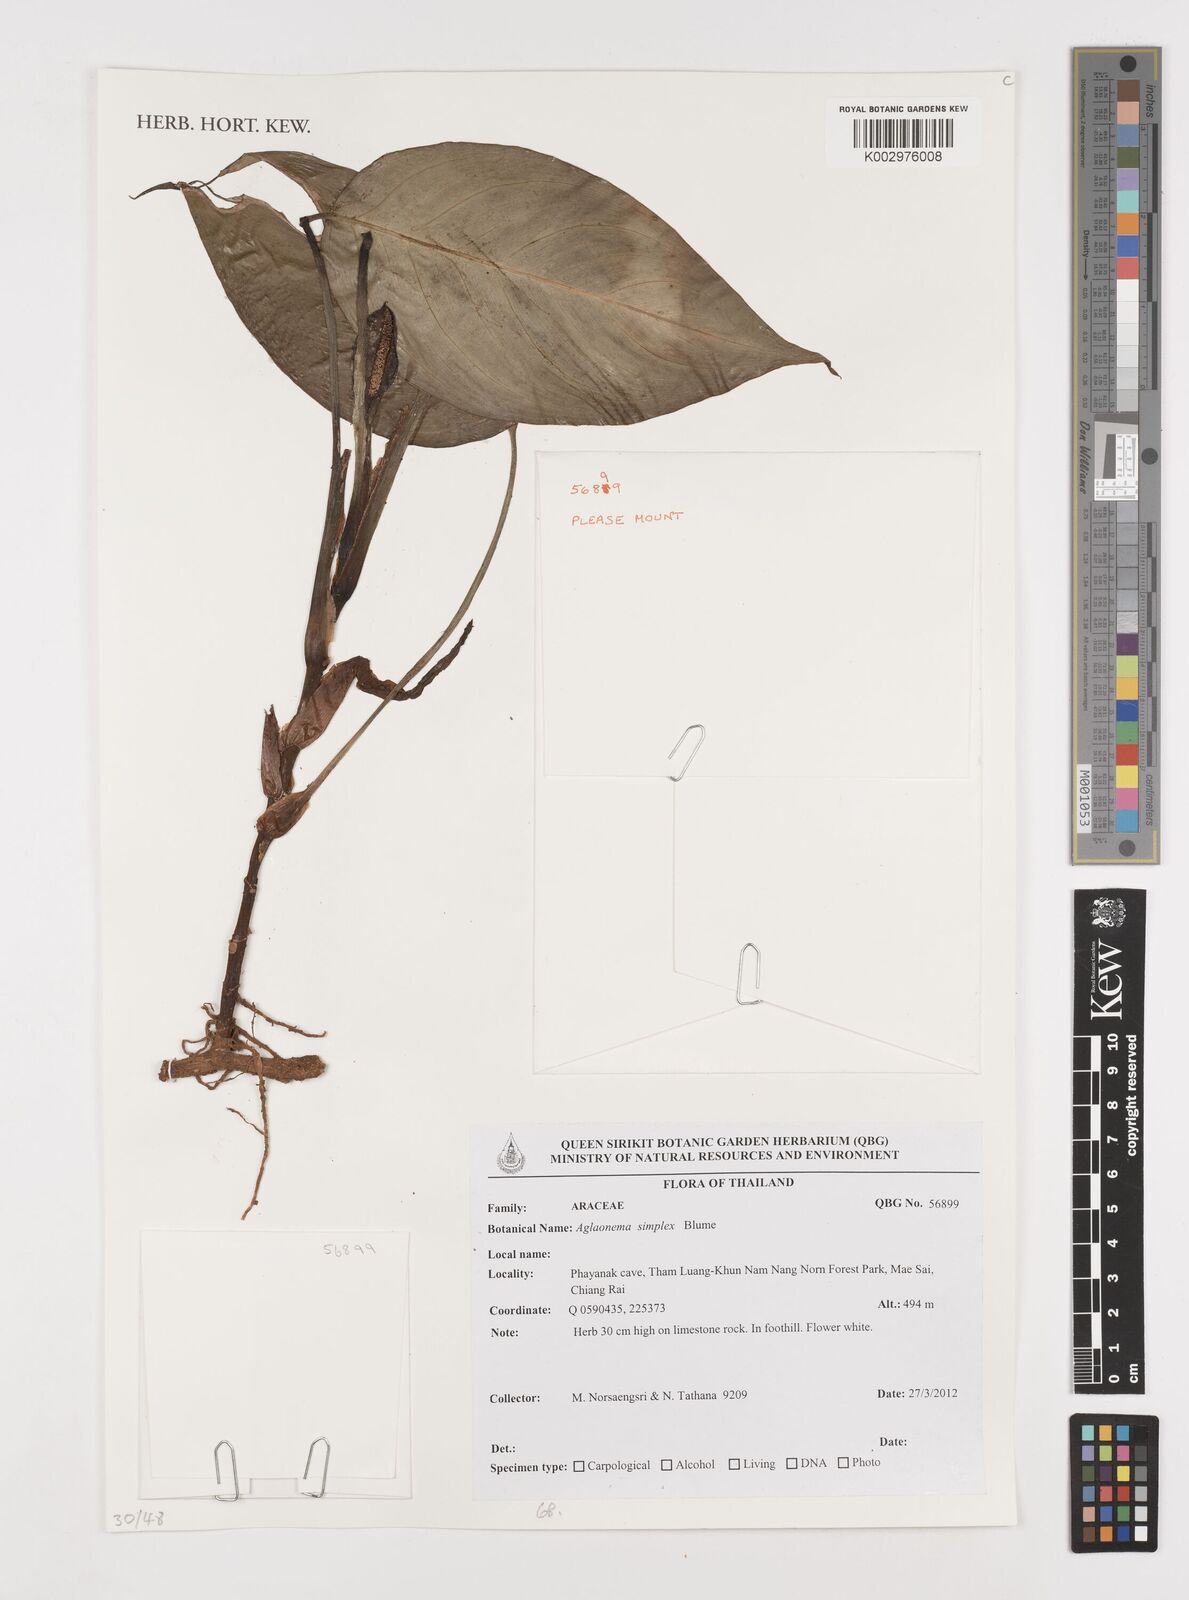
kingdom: Plantae
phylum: Tracheophyta
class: Liliopsida
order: Alismatales
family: Araceae
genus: Aglaonema
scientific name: Aglaonema simplex
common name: Malayan-sword
